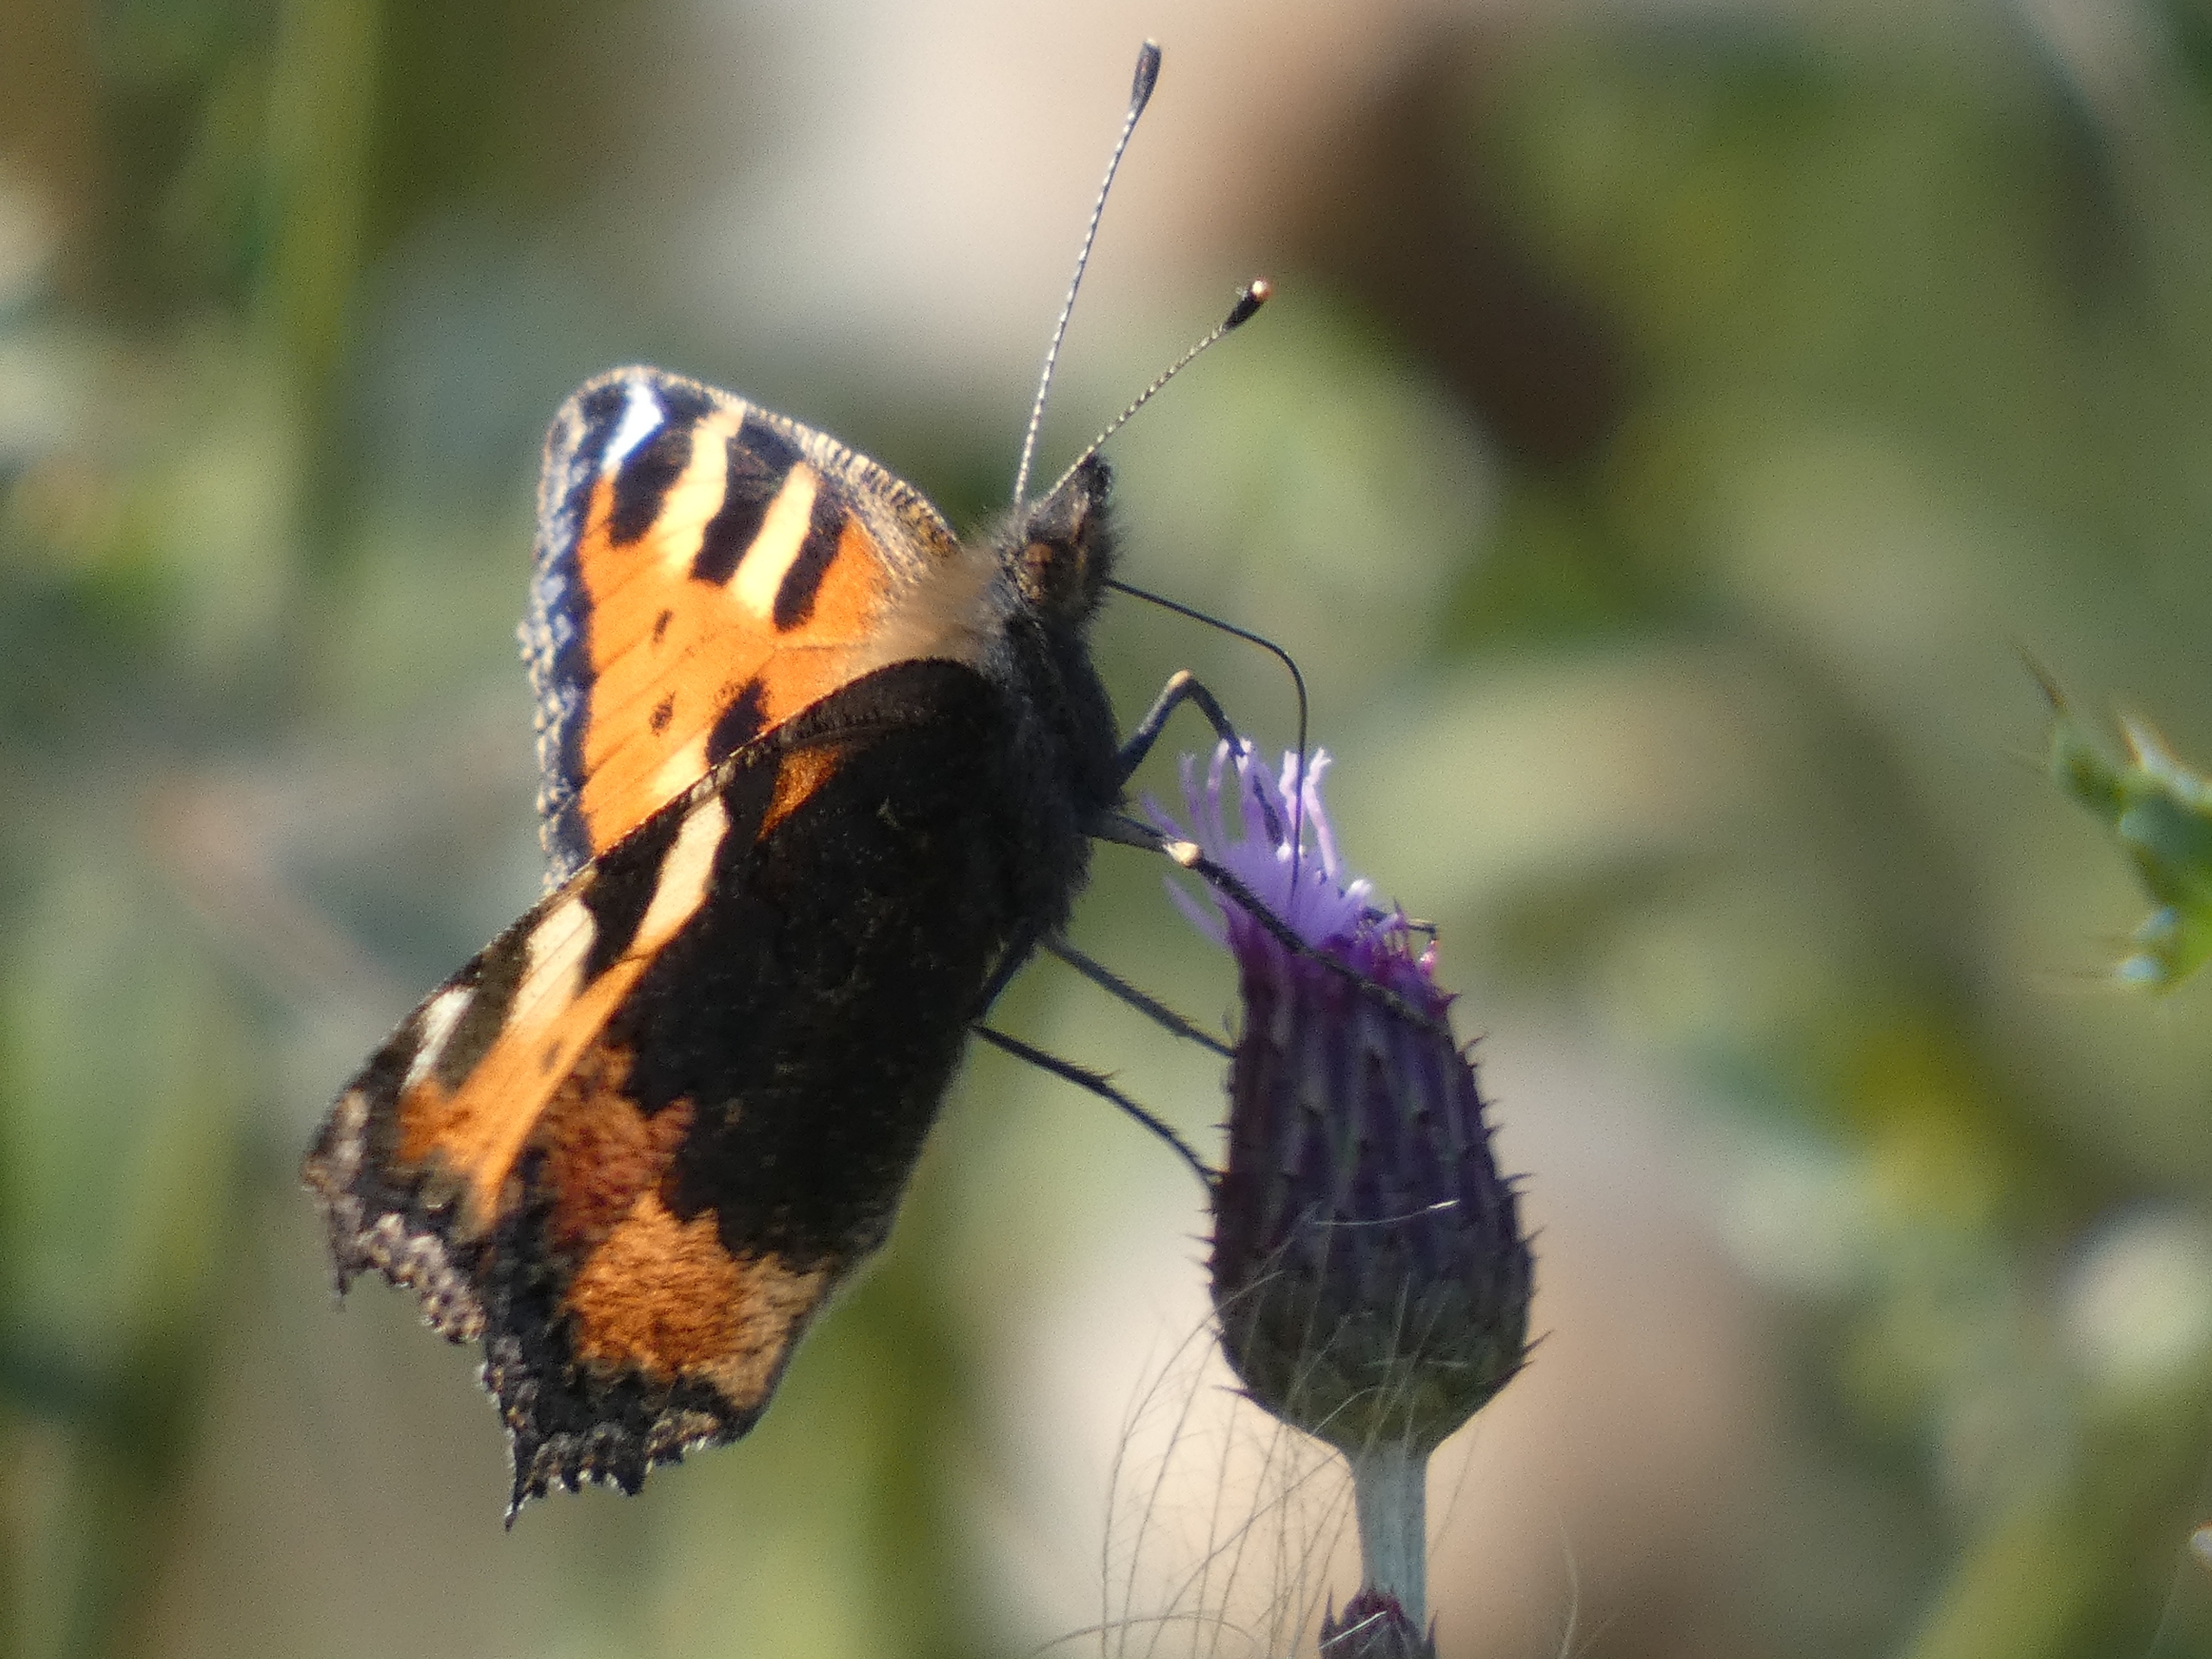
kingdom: Animalia
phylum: Arthropoda
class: Insecta
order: Lepidoptera
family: Nymphalidae
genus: Aglais
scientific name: Aglais urticae
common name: Nældens takvinge
